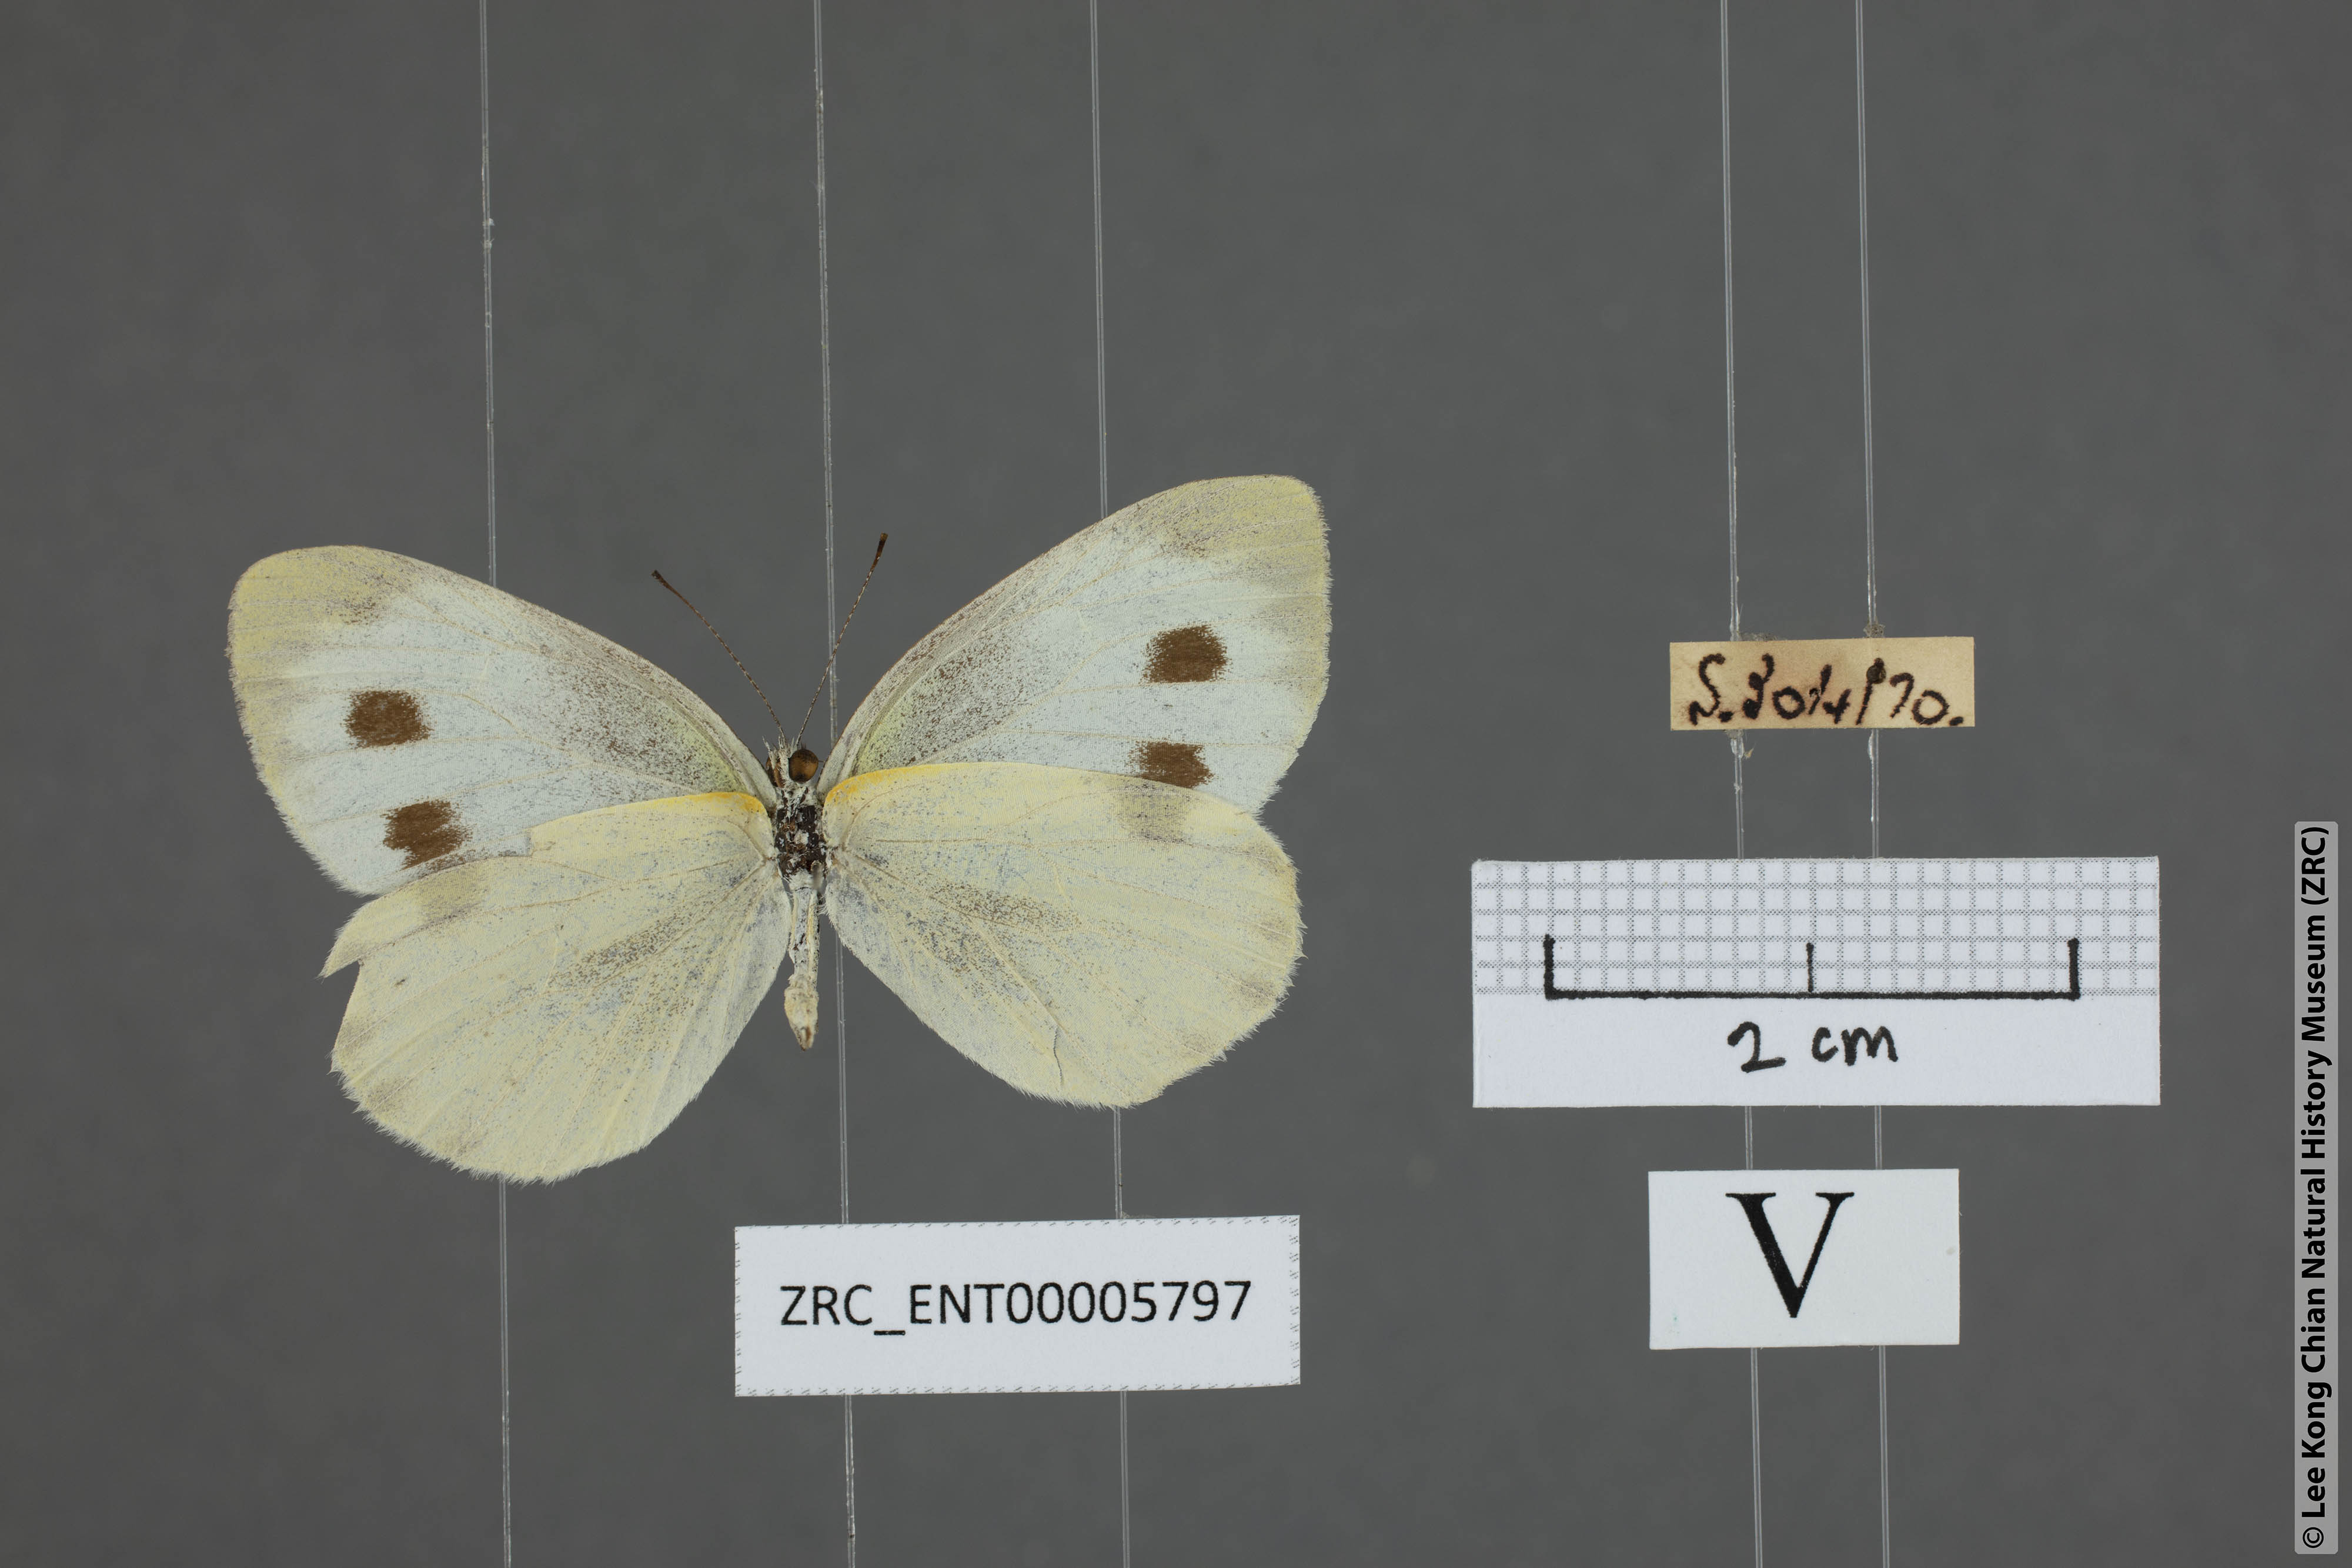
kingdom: Animalia
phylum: Arthropoda
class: Insecta
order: Lepidoptera
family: Pieridae
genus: Pieris
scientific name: Pieris canidia
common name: Indian cabbage white
